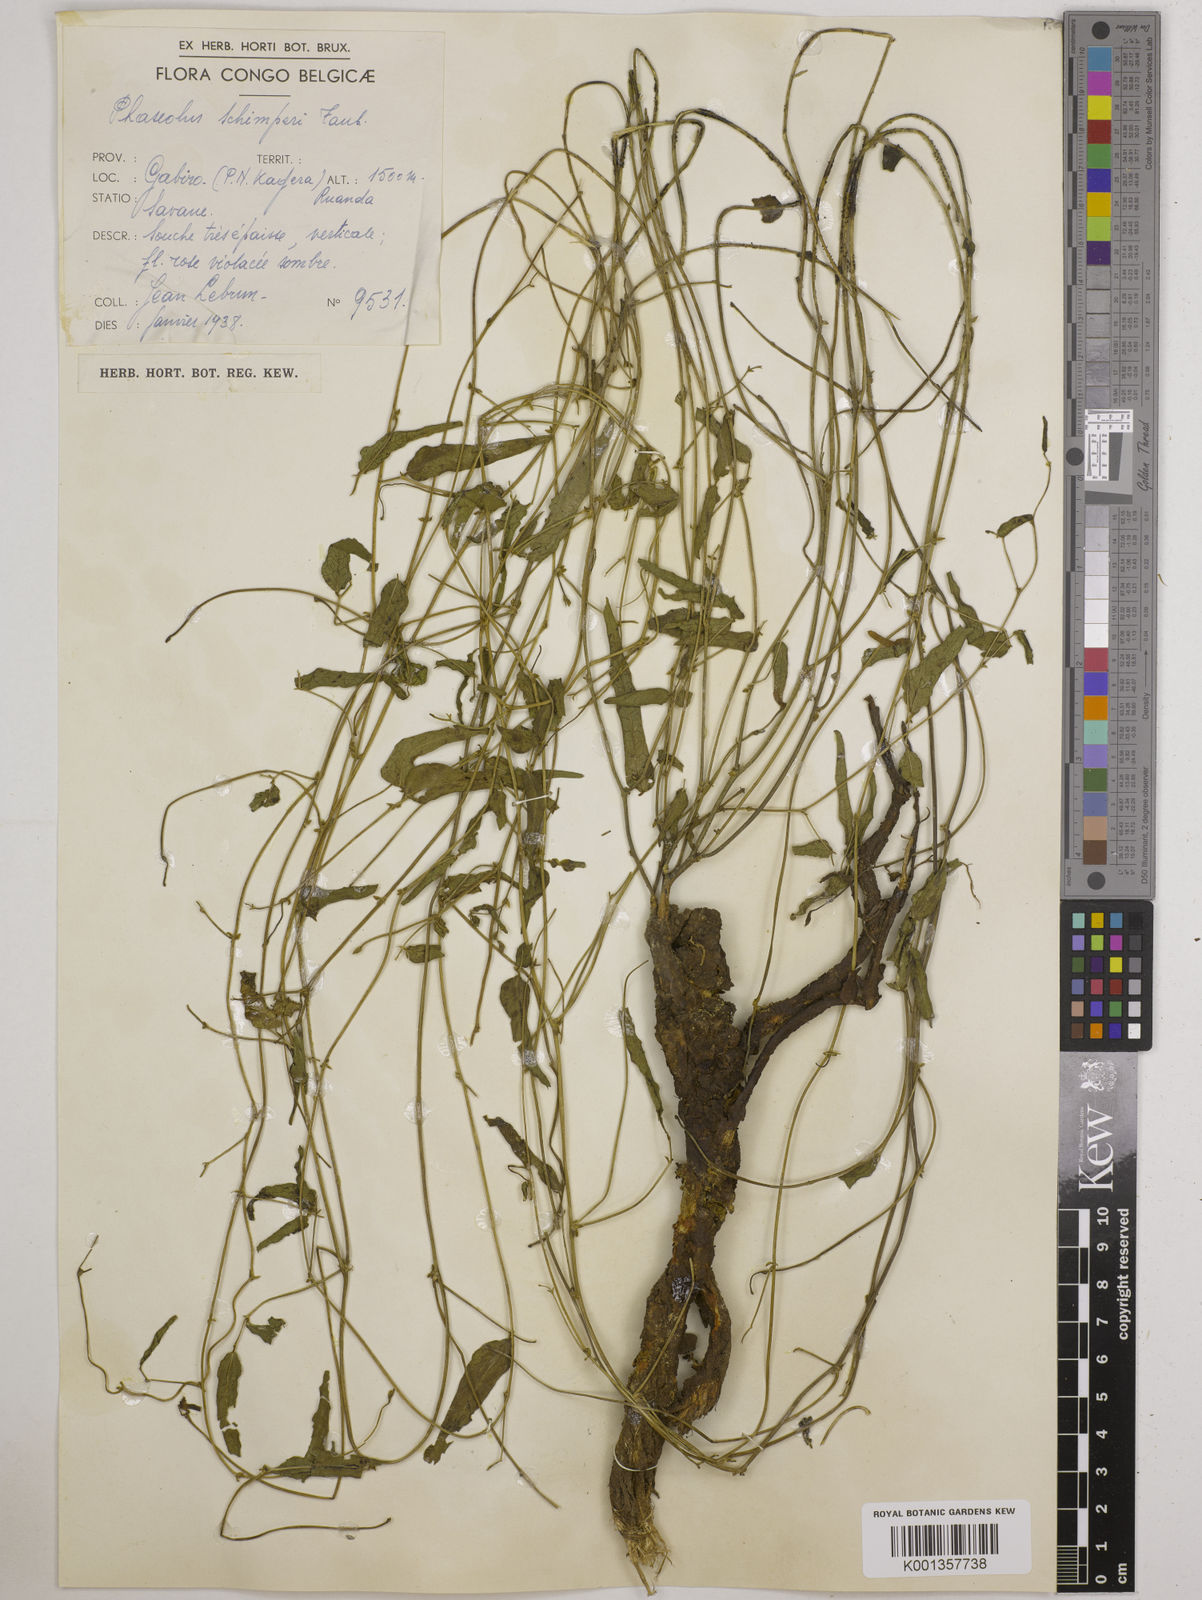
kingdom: Plantae
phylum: Tracheophyta
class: Magnoliopsida
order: Fabales
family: Fabaceae
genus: Wajira
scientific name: Wajira grahamiana
